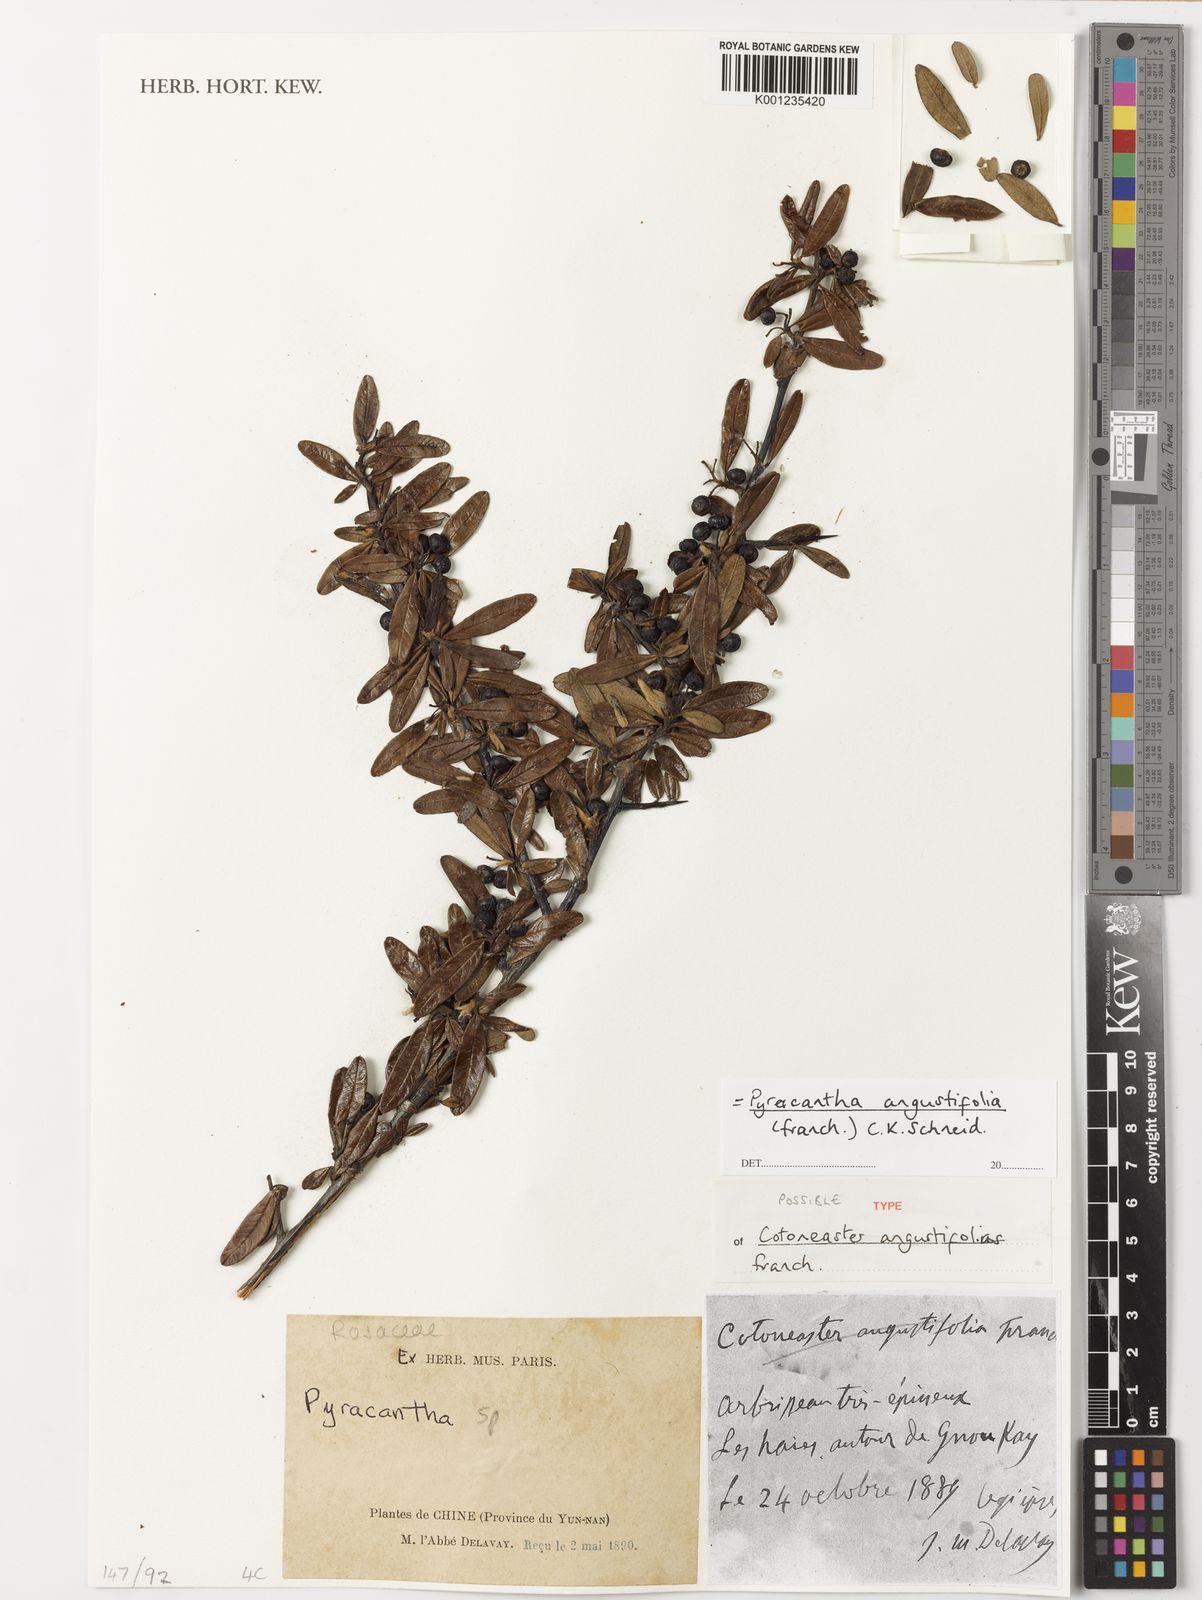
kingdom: Plantae
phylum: Tracheophyta
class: Magnoliopsida
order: Rosales
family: Rosaceae
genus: Pyracantha
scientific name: Pyracantha angustifolia
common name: Narrowleaf firethorn
